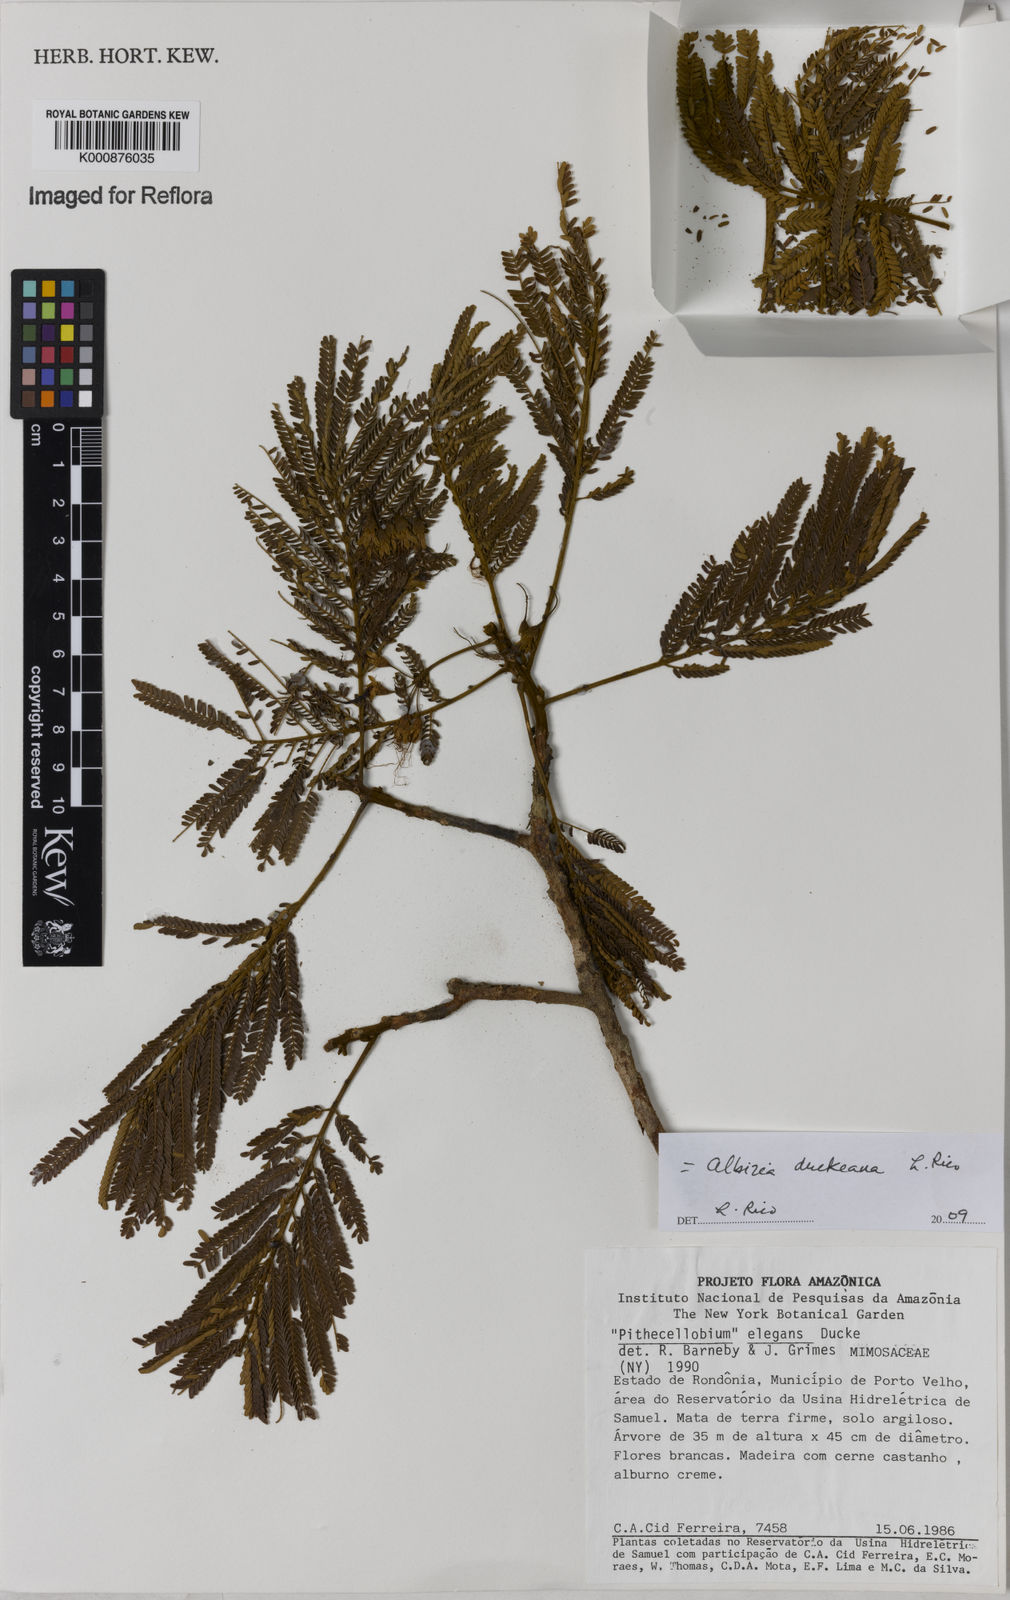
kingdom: Plantae
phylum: Tracheophyta
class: Magnoliopsida
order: Fabales
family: Fabaceae
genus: Balizia
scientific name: Balizia elegans
